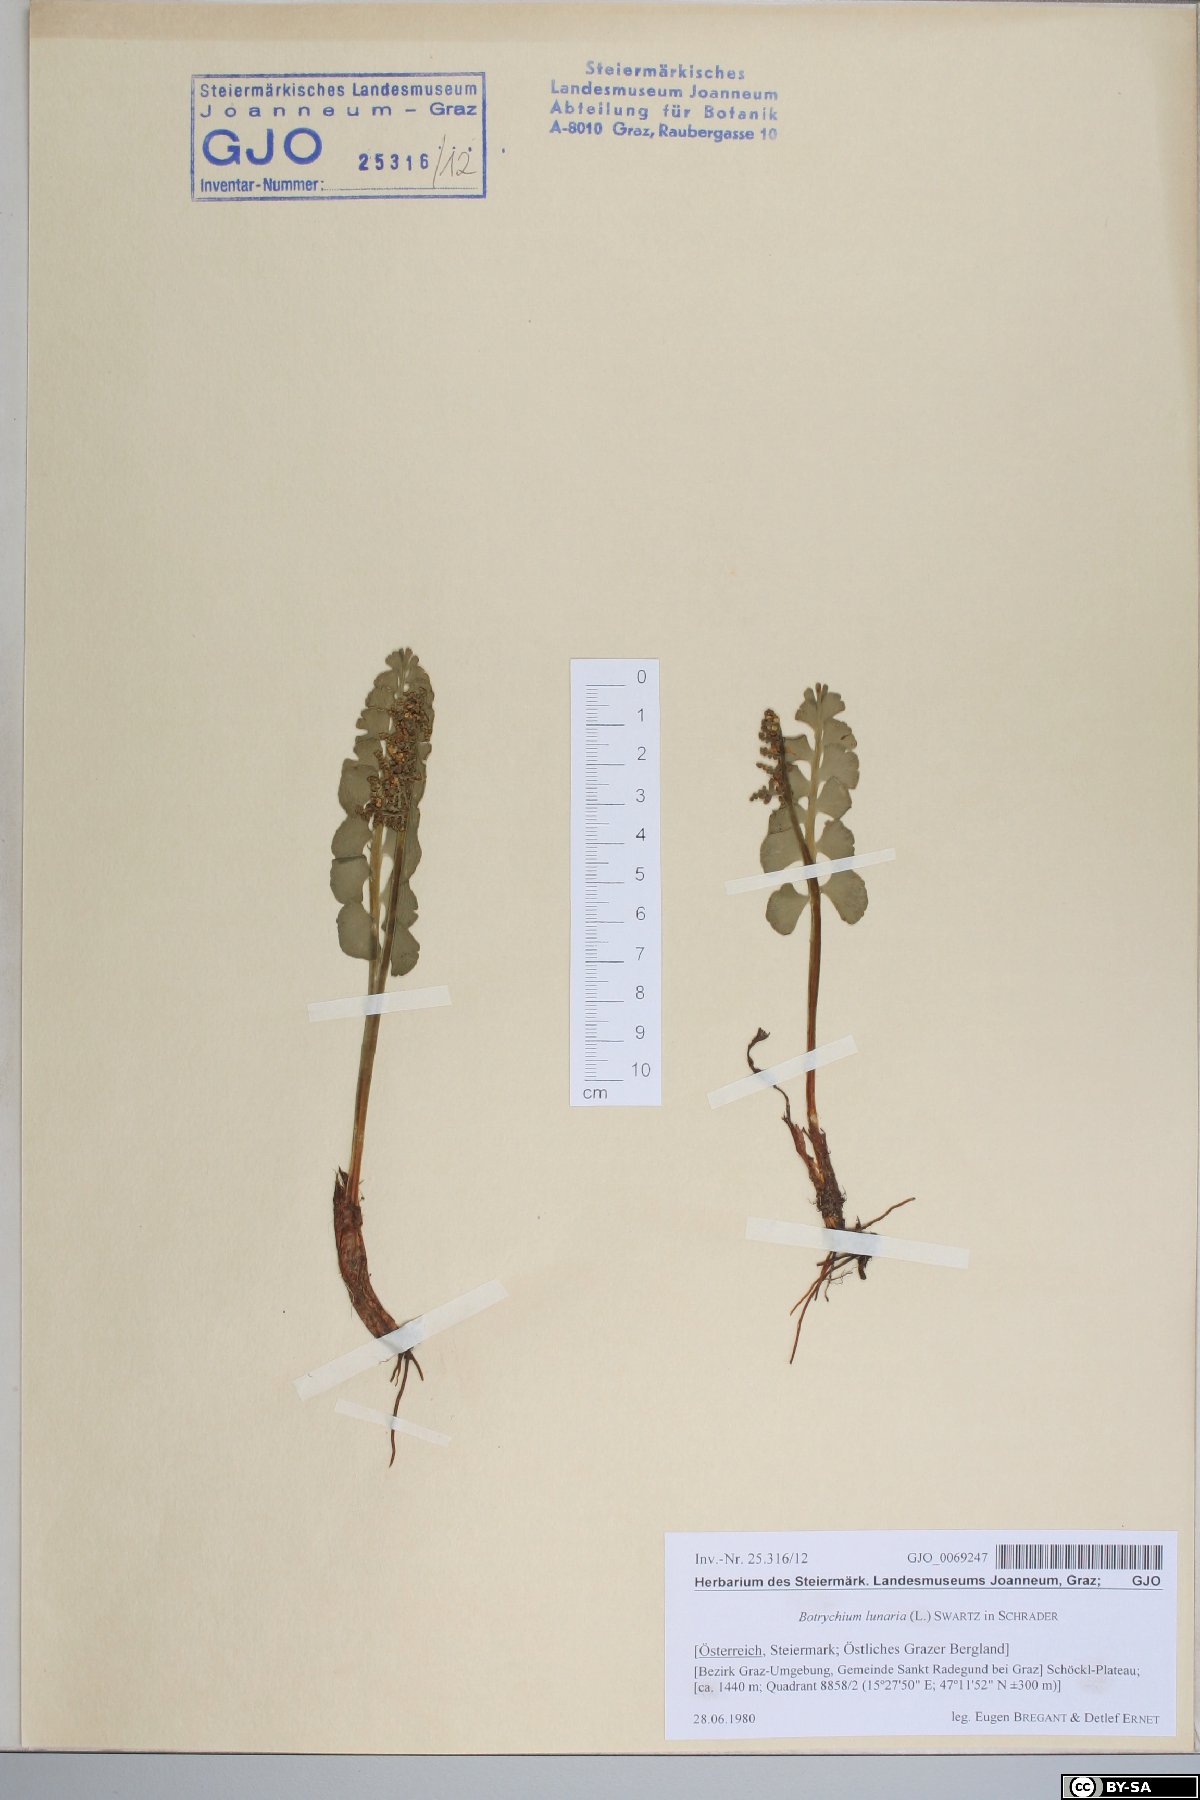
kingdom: Plantae
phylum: Tracheophyta
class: Polypodiopsida
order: Ophioglossales
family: Ophioglossaceae
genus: Botrychium
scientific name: Botrychium lunaria
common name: Moonwort
